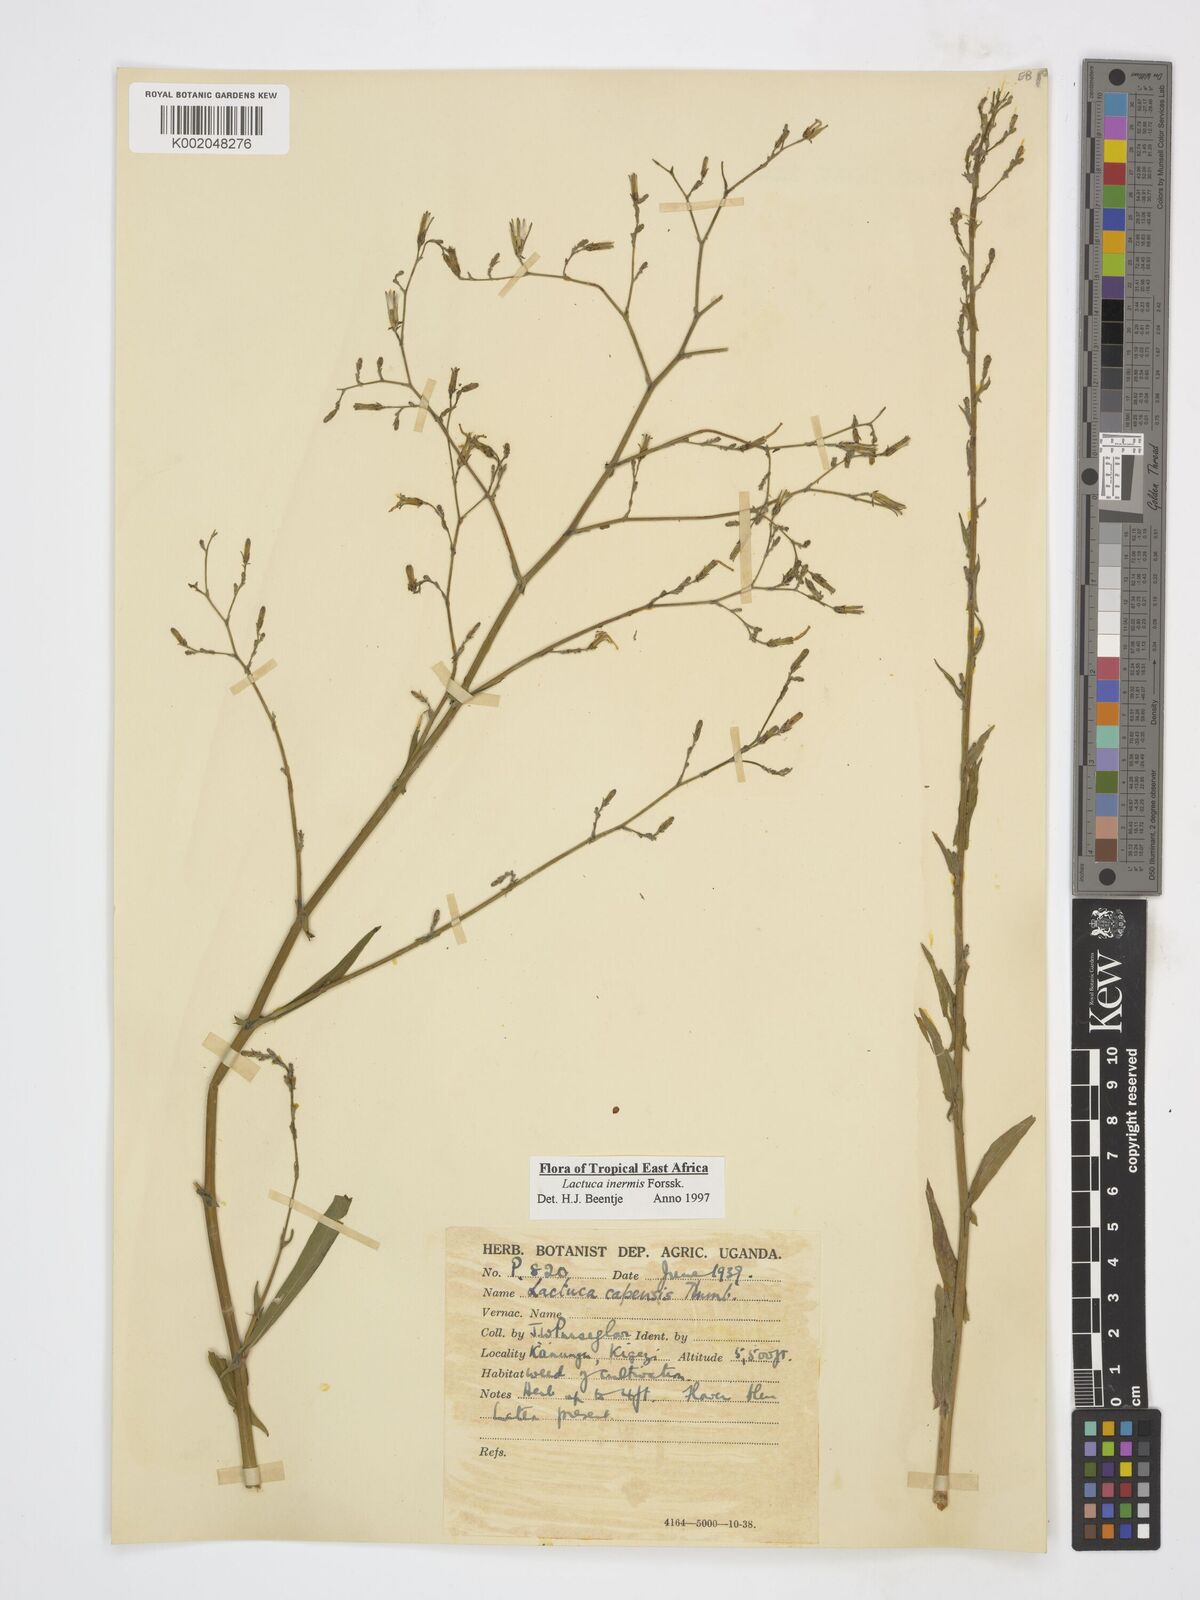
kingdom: Plantae
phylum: Tracheophyta
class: Magnoliopsida
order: Asterales
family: Asteraceae
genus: Lactuca
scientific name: Lactuca inermis
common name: Wild lettuce
